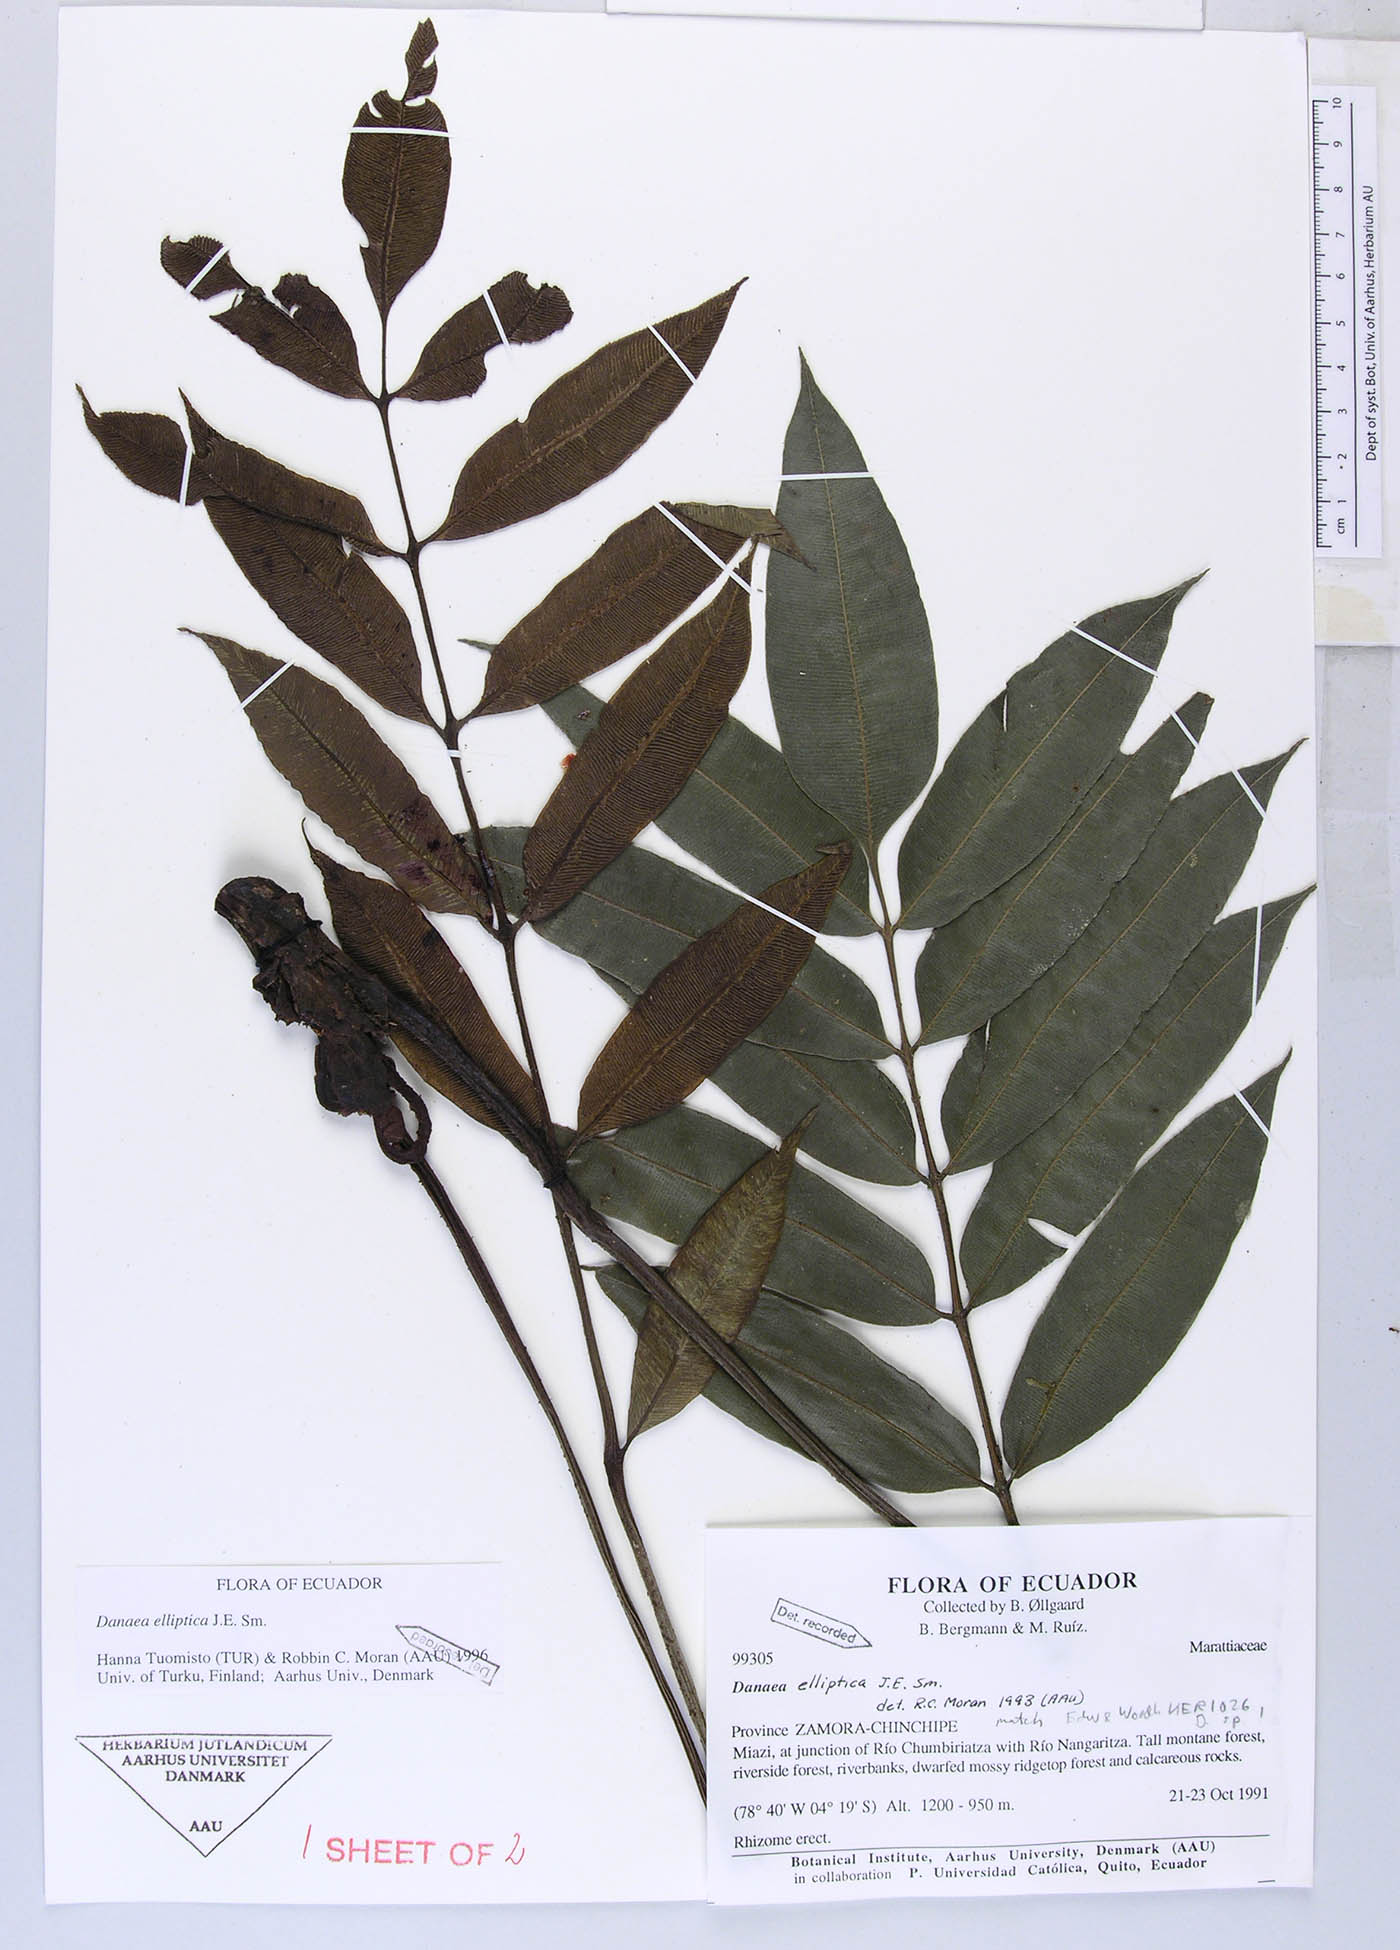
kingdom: Plantae
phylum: Tracheophyta
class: Polypodiopsida
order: Marattiales
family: Marattiaceae
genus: Danaea
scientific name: Danaea nodosa
